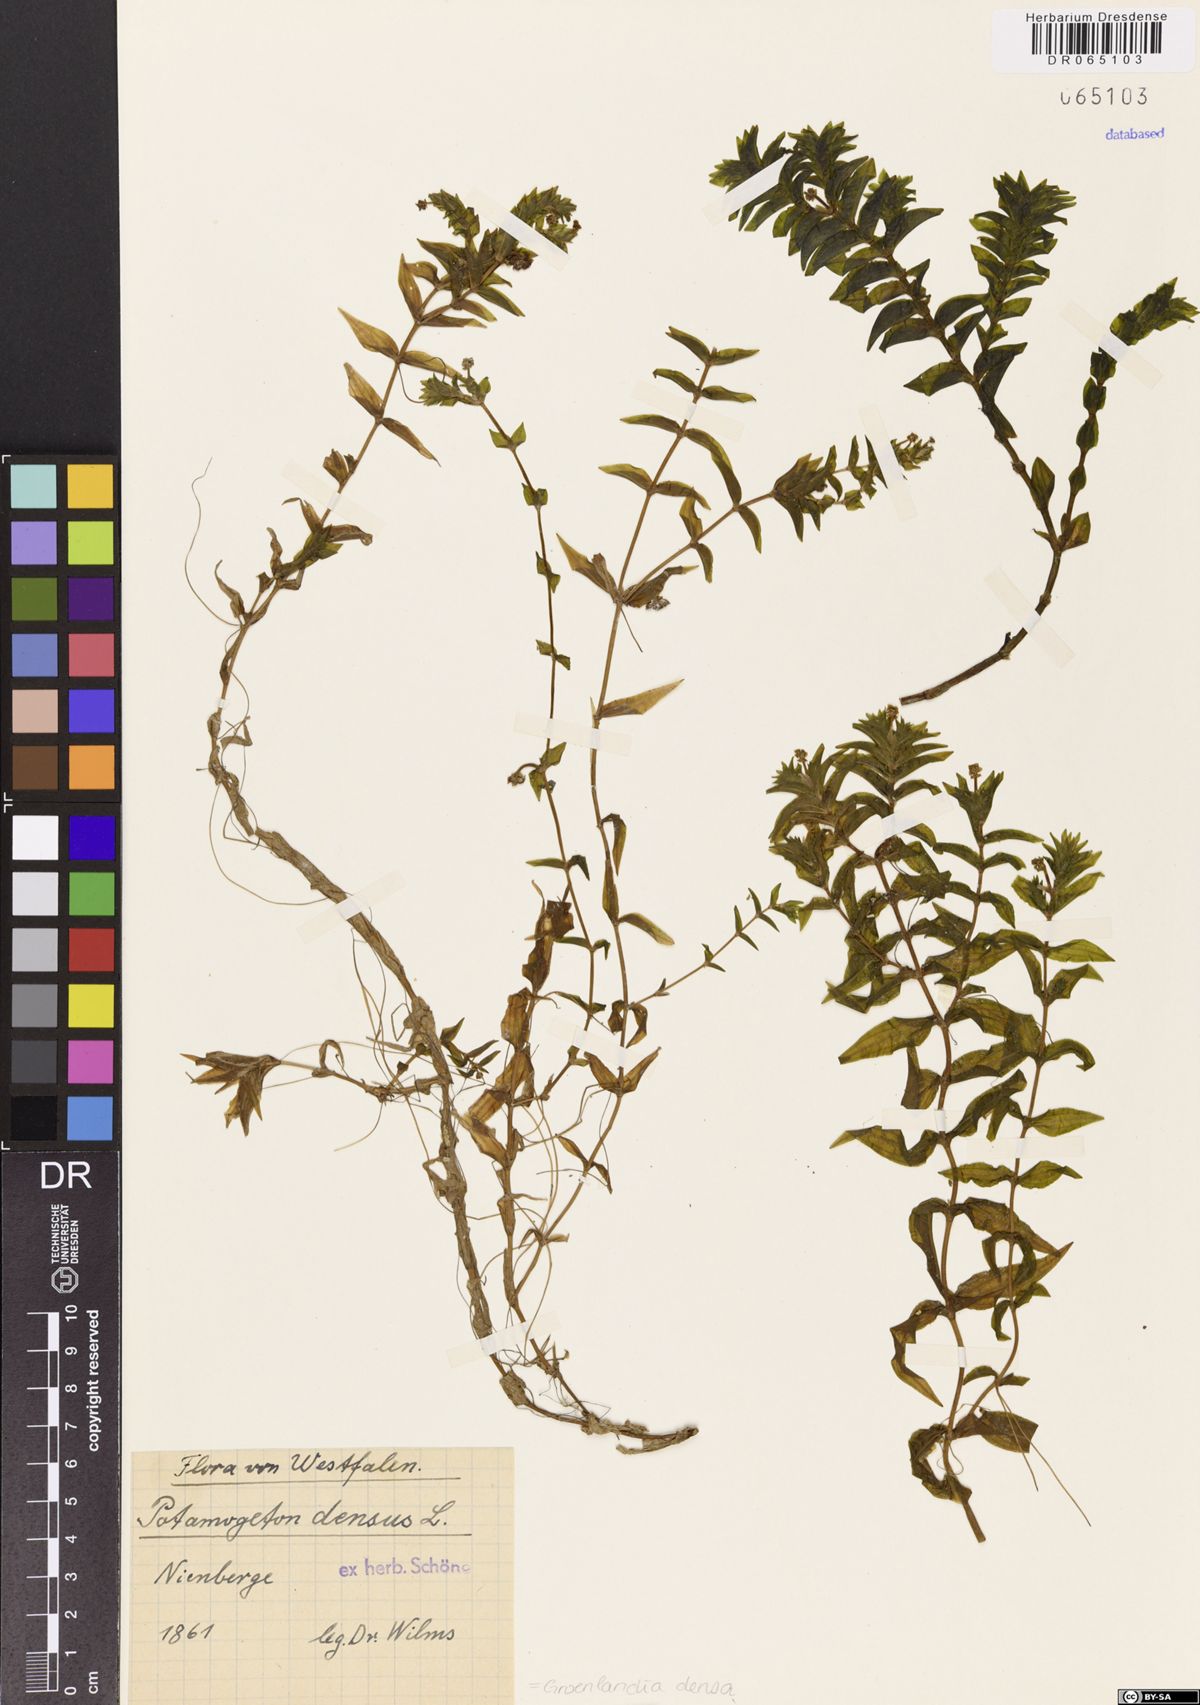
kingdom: Plantae
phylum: Tracheophyta
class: Liliopsida
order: Alismatales
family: Potamogetonaceae
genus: Groenlandia
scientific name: Groenlandia densa
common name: Opposite-leaved pondweed
